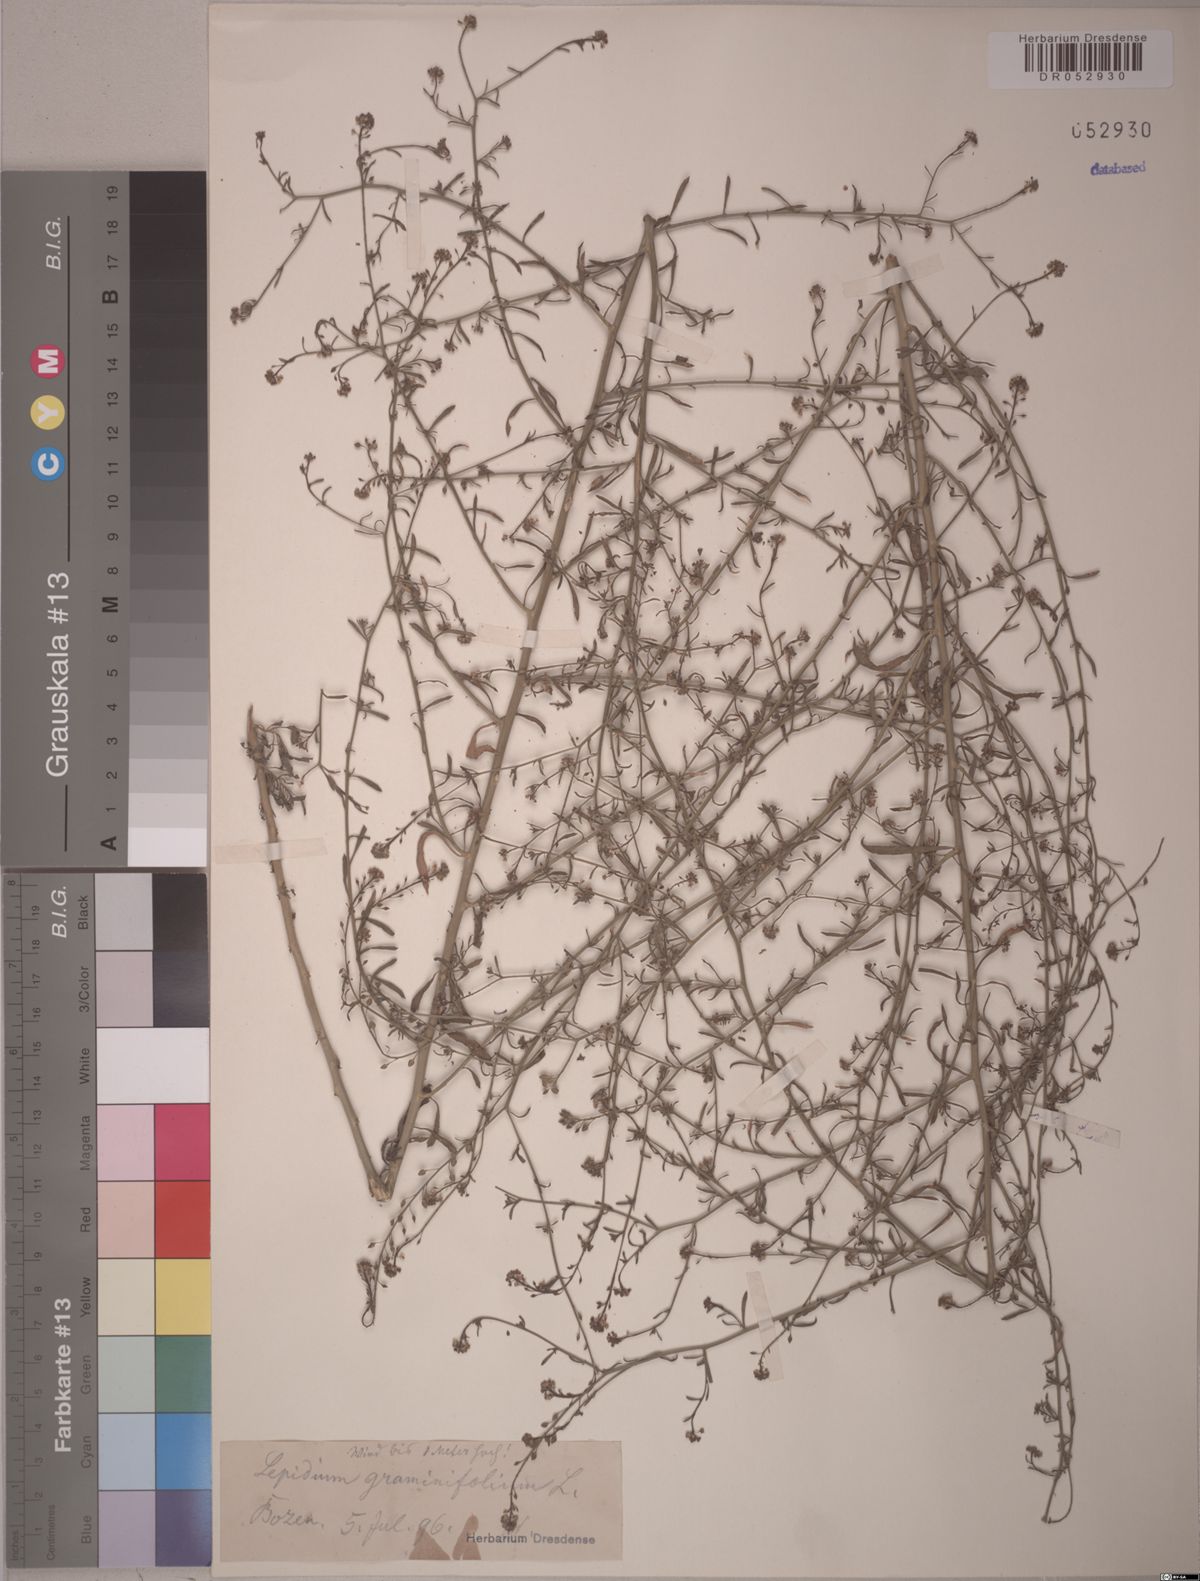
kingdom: Plantae
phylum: Tracheophyta
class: Magnoliopsida
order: Brassicales
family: Brassicaceae
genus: Lepidium
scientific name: Lepidium graminifolium
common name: Tall pepperwort
